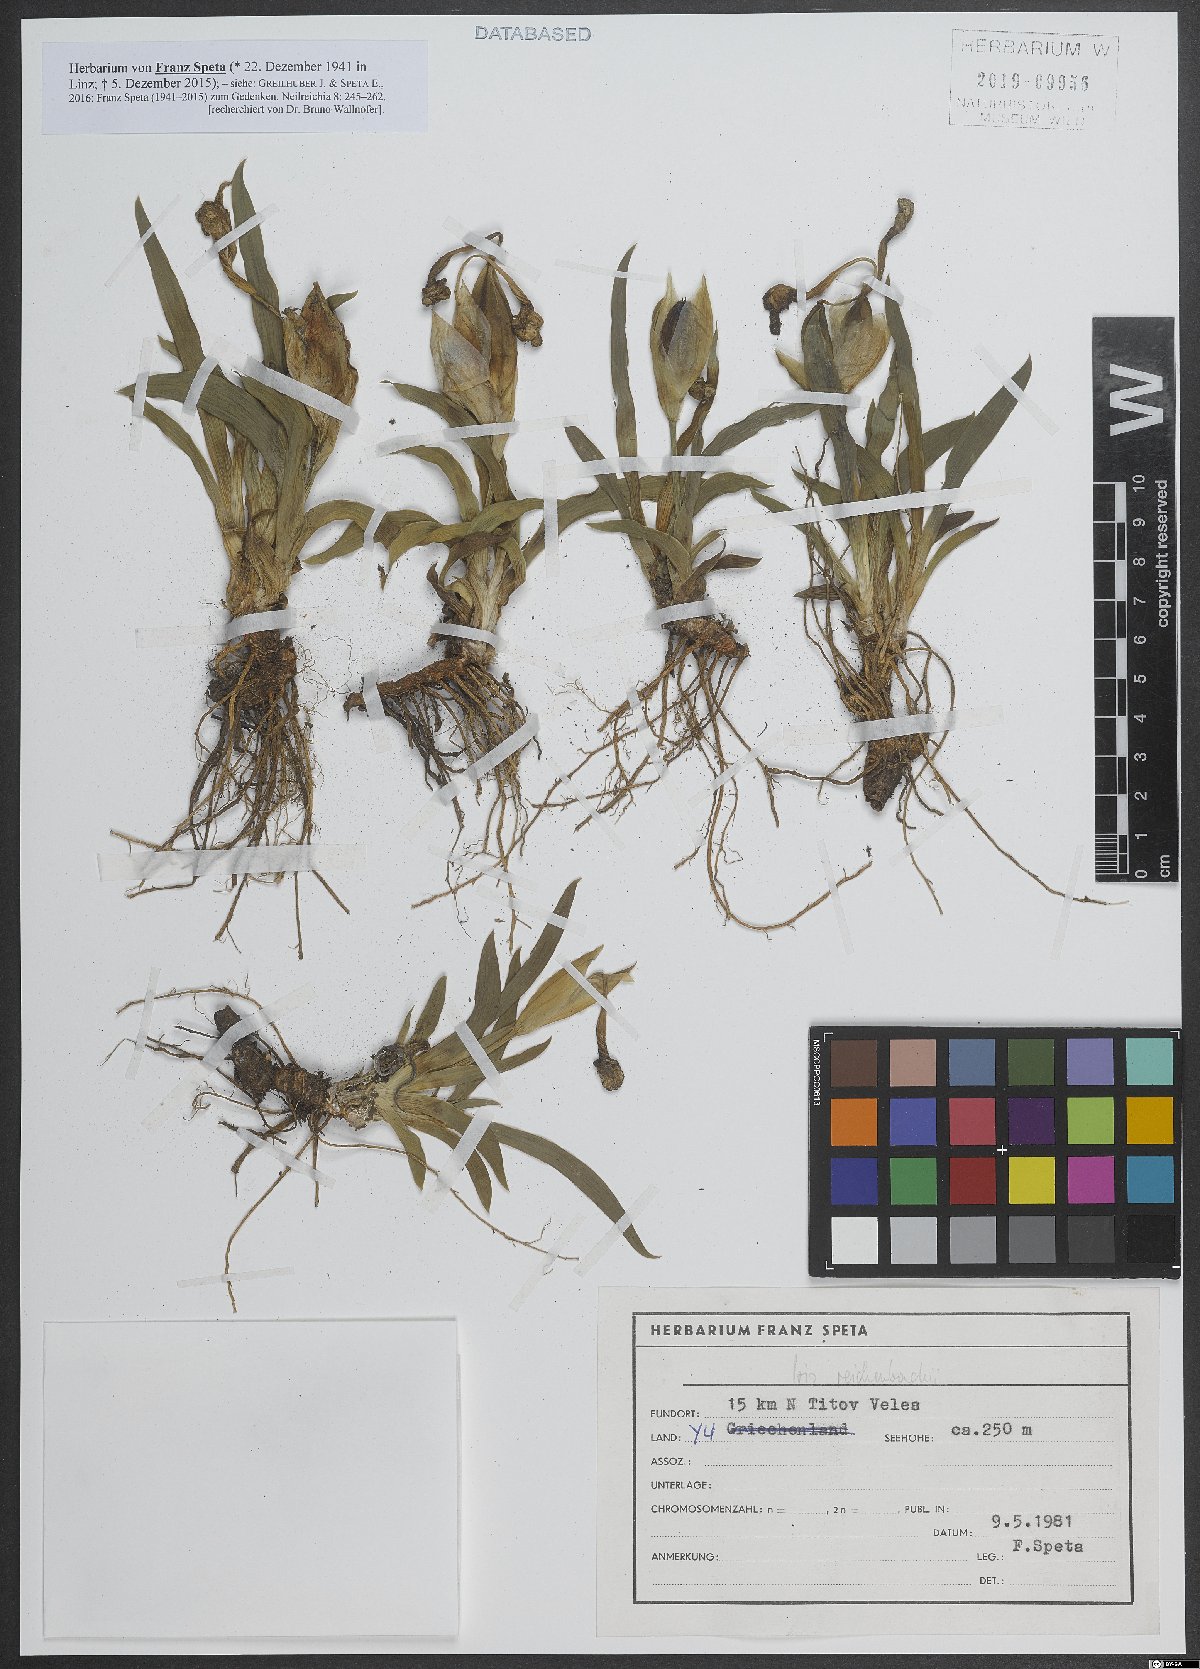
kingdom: Plantae
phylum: Tracheophyta
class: Liliopsida
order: Asparagales
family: Iridaceae
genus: Iris
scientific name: Iris reichenbachii
